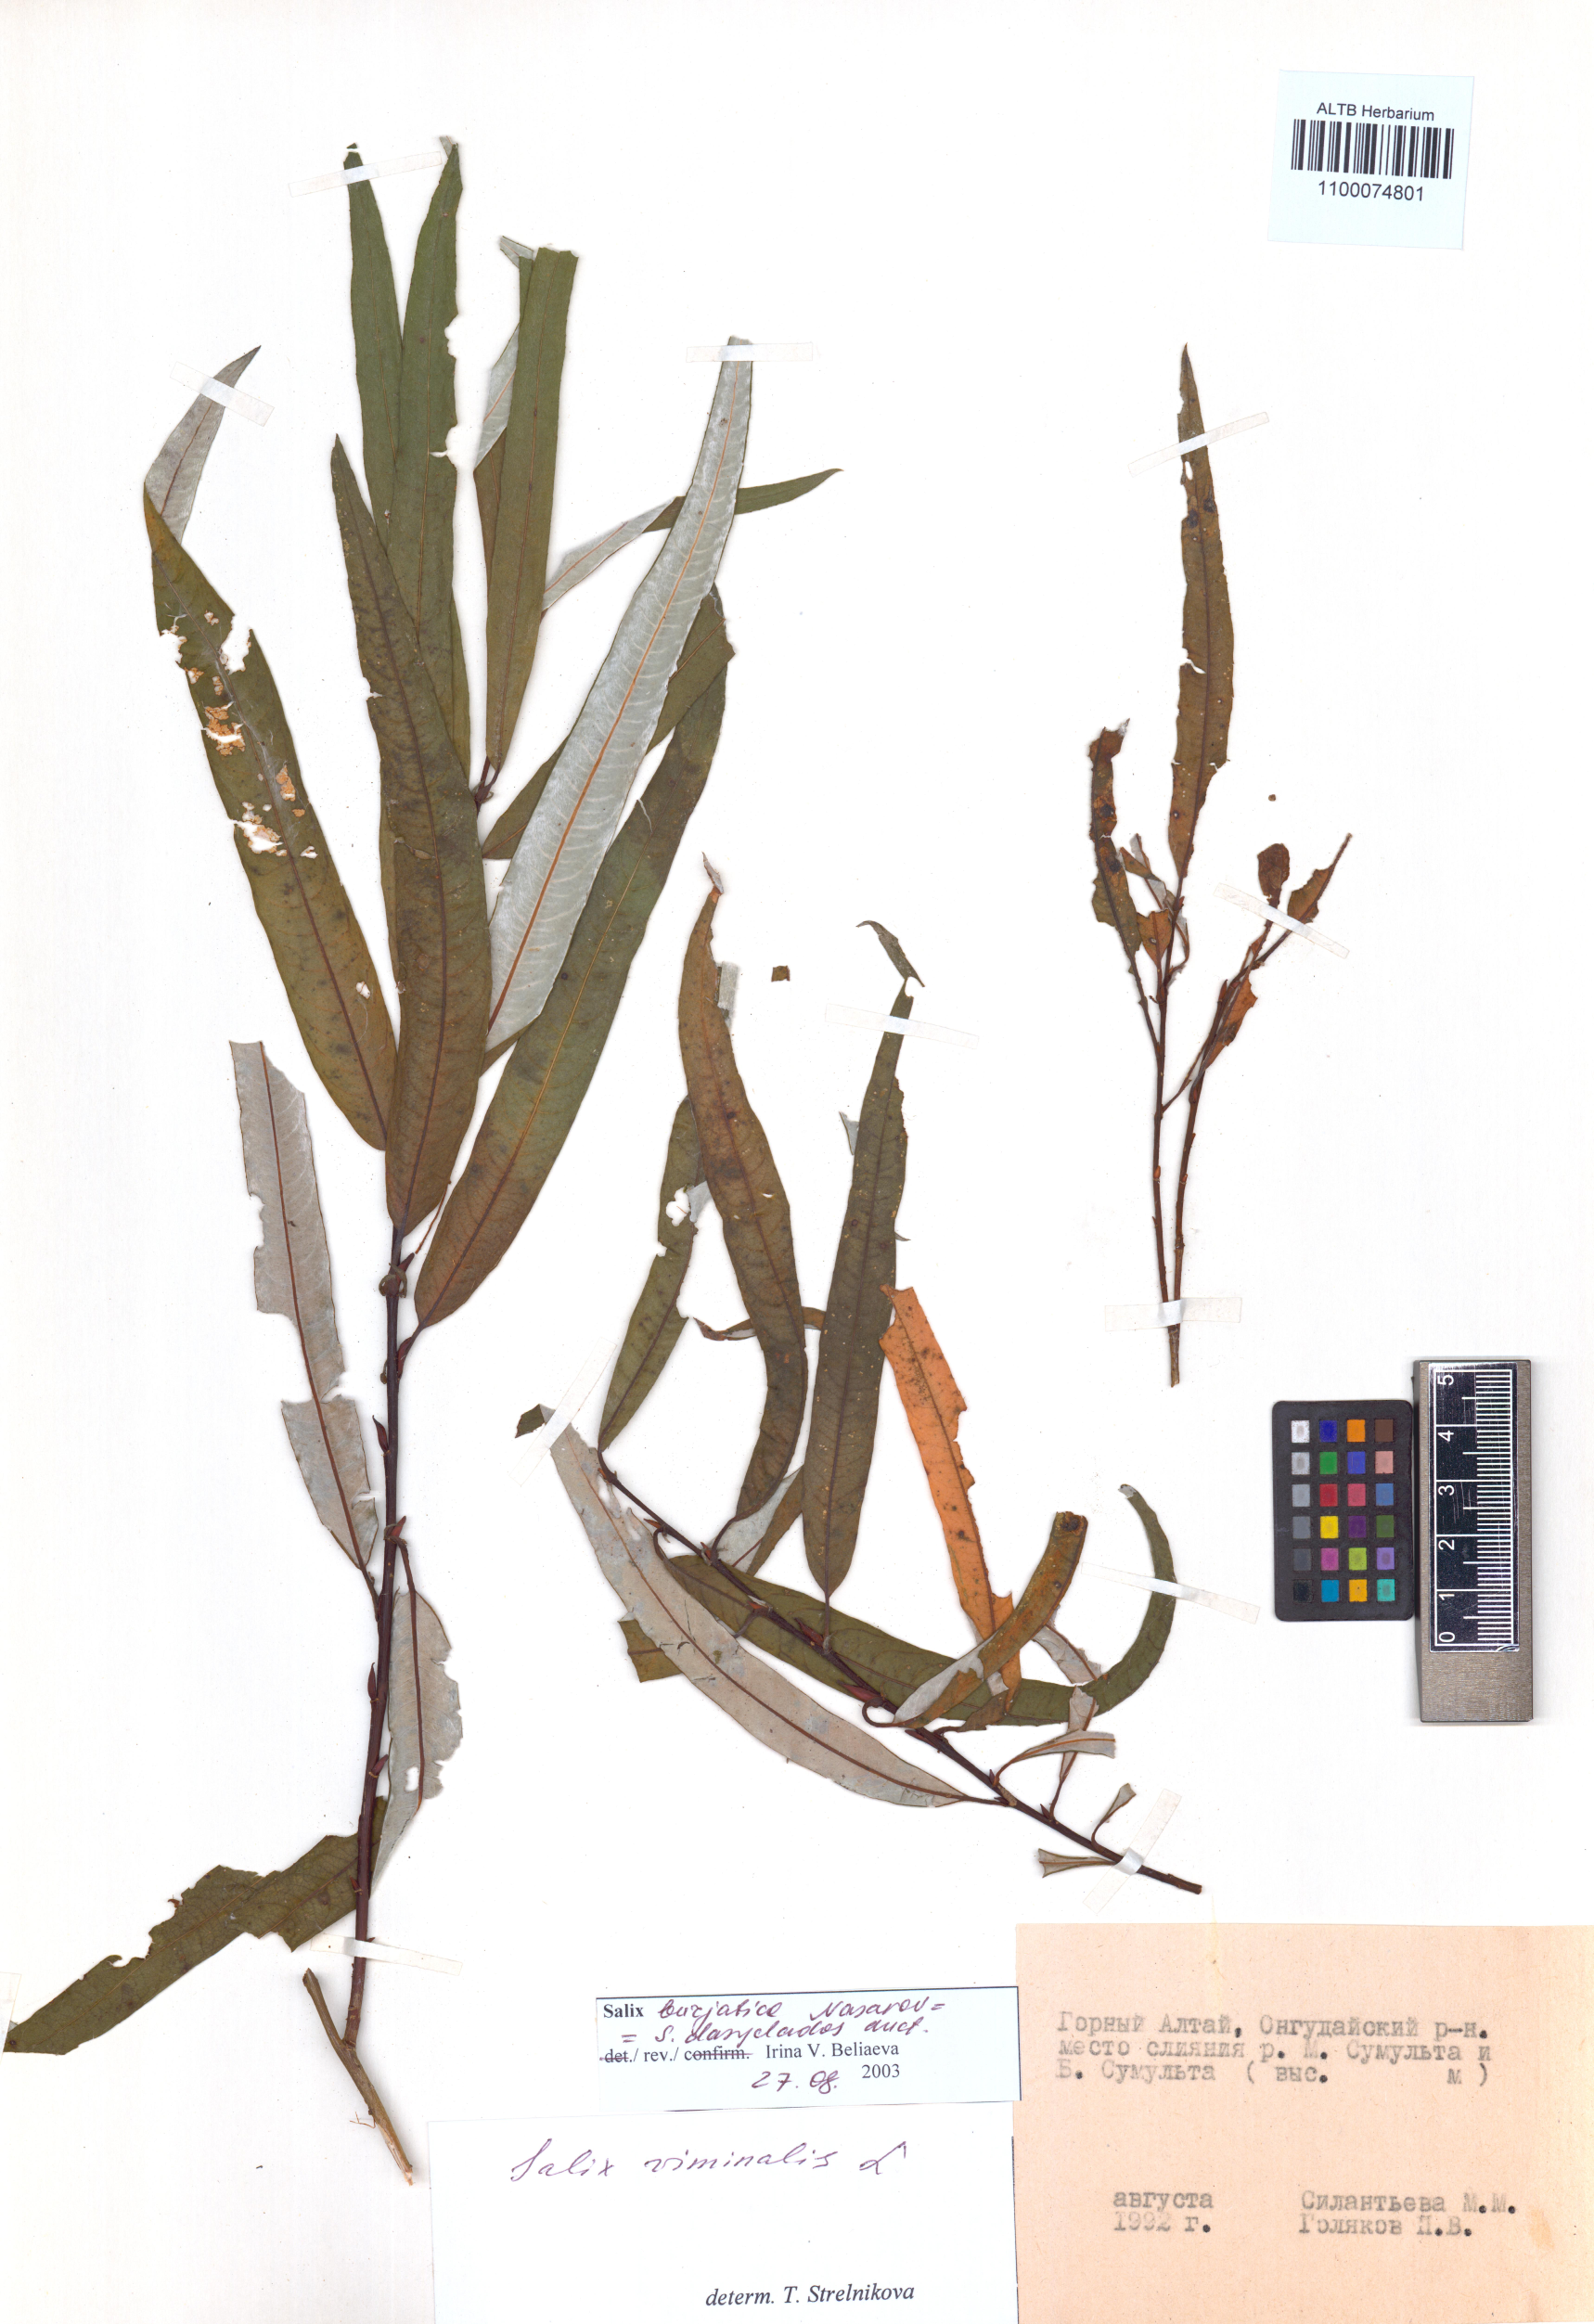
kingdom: Plantae
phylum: Tracheophyta
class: Magnoliopsida
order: Malpighiales
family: Salicaceae
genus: Salix
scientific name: Salix gmelinii
